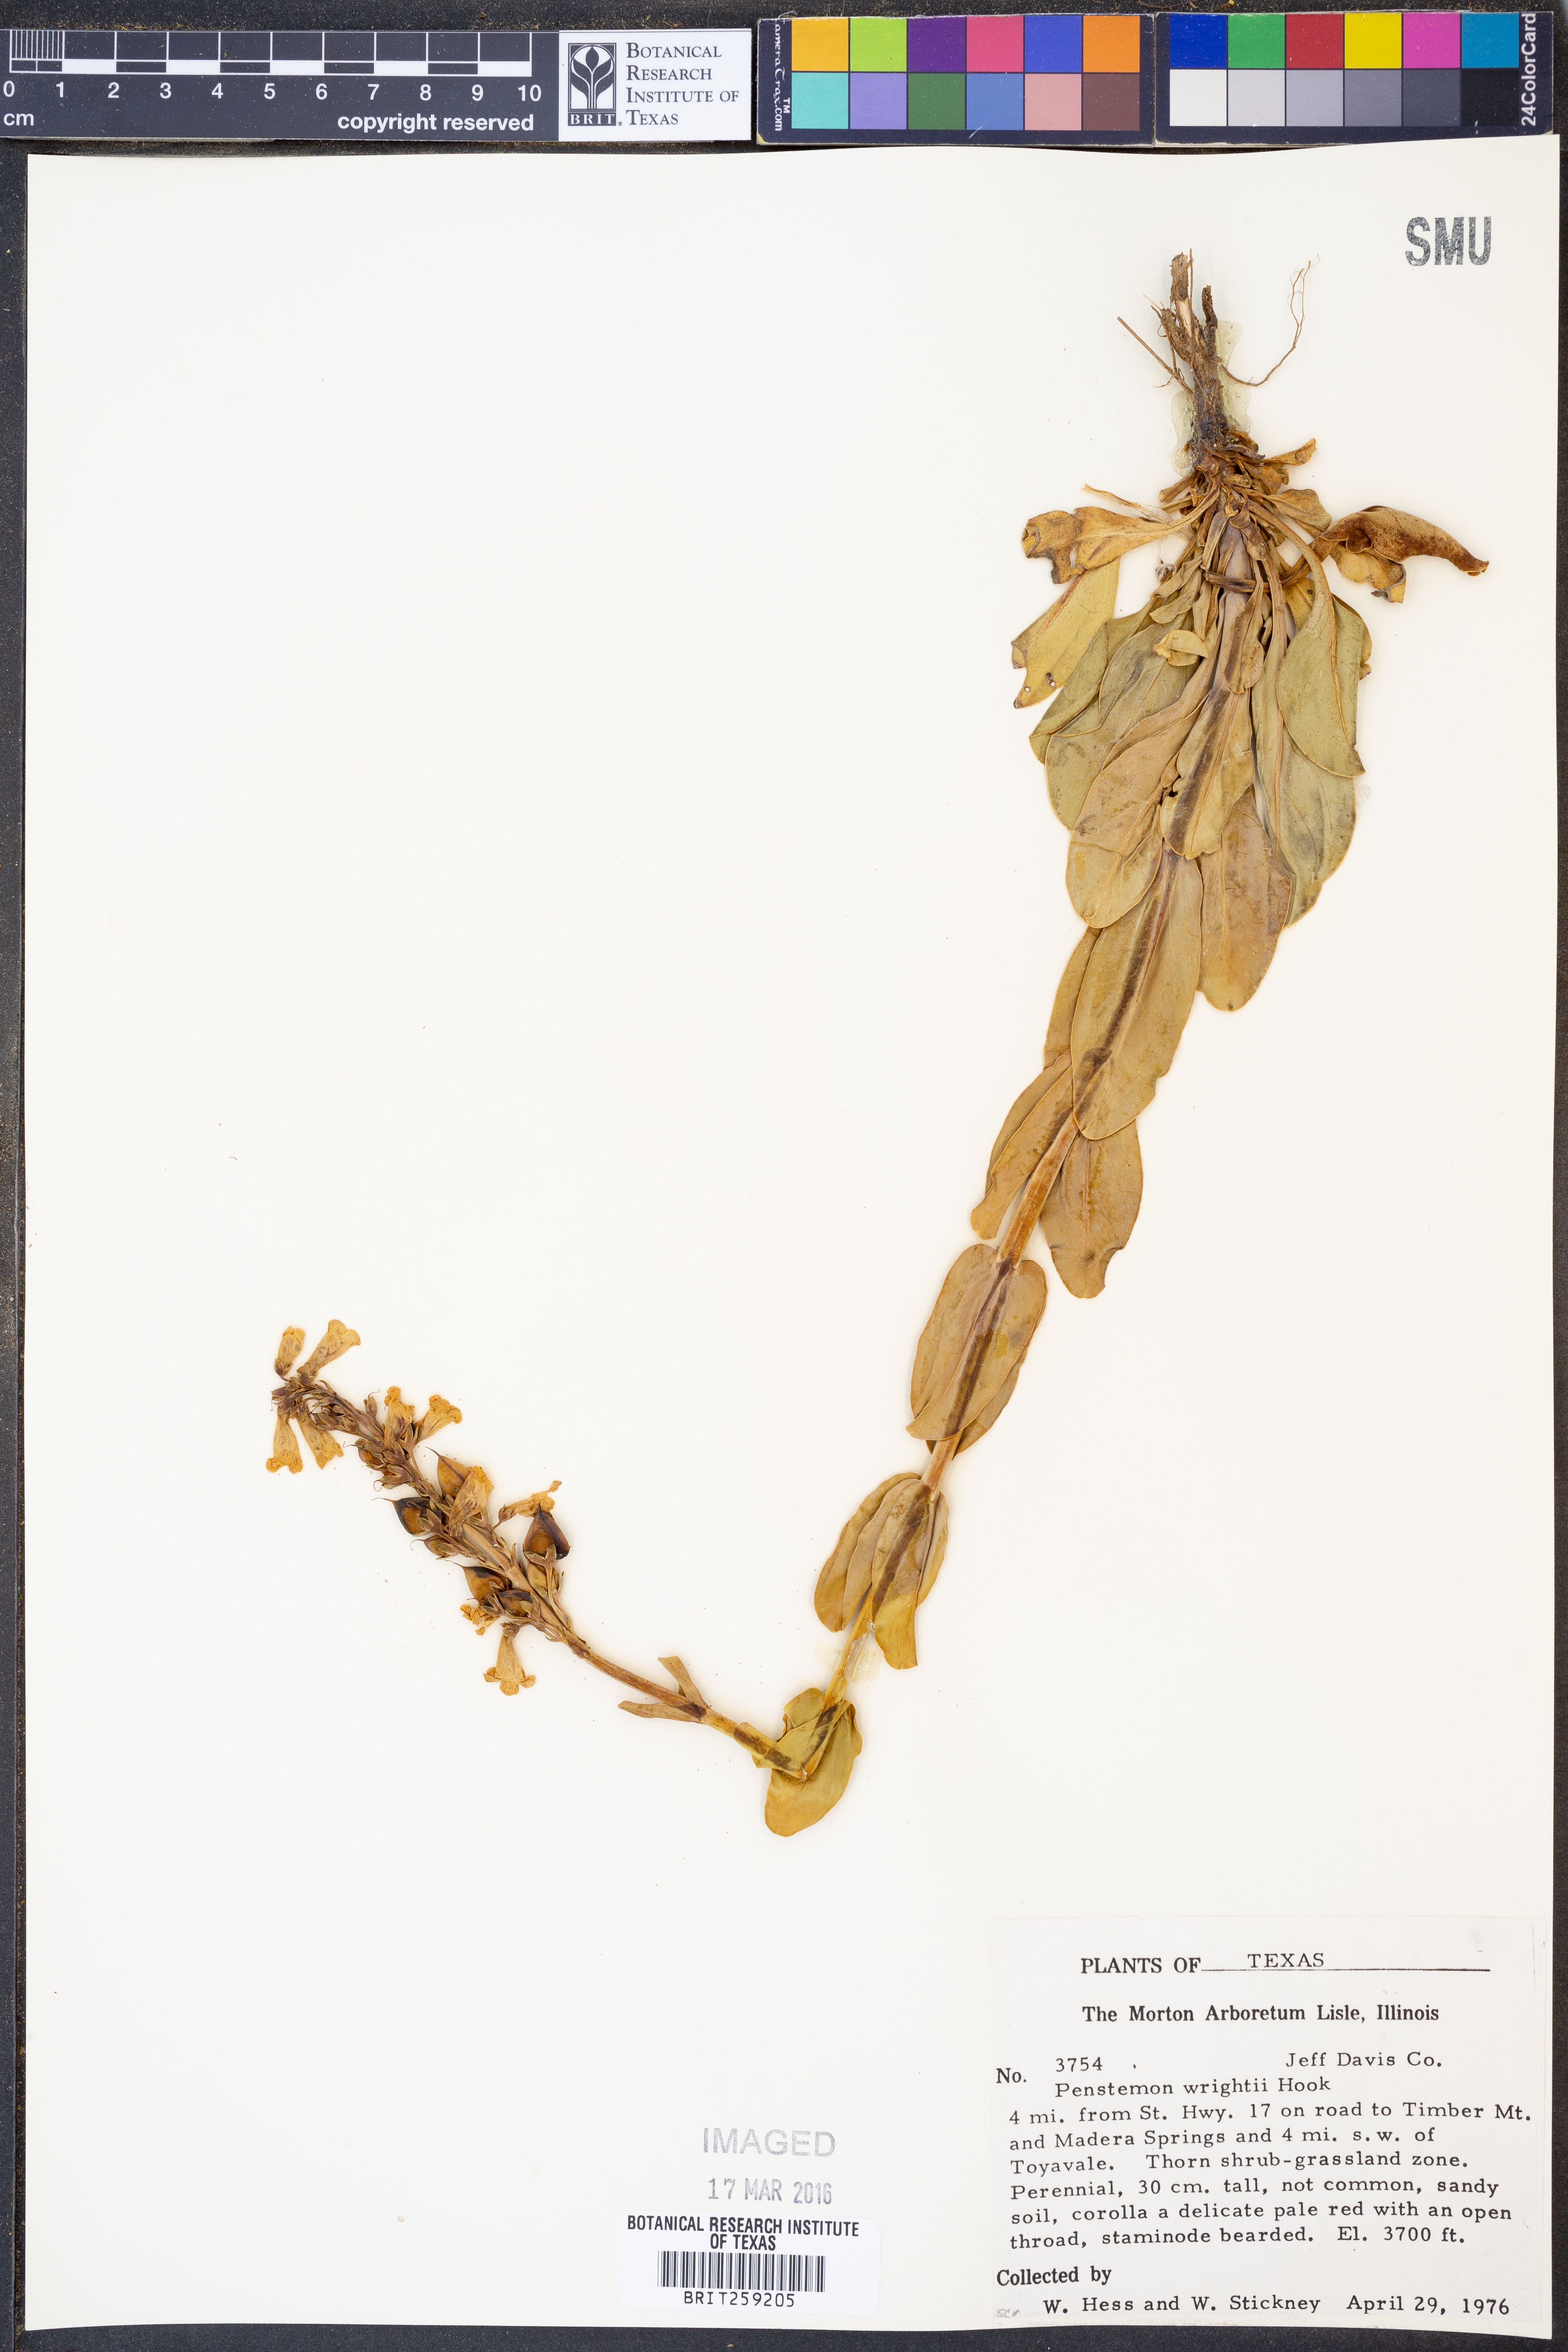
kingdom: Plantae
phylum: Tracheophyta
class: Magnoliopsida
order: Lamiales
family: Plantaginaceae
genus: Penstemon
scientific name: Penstemon wrightii
